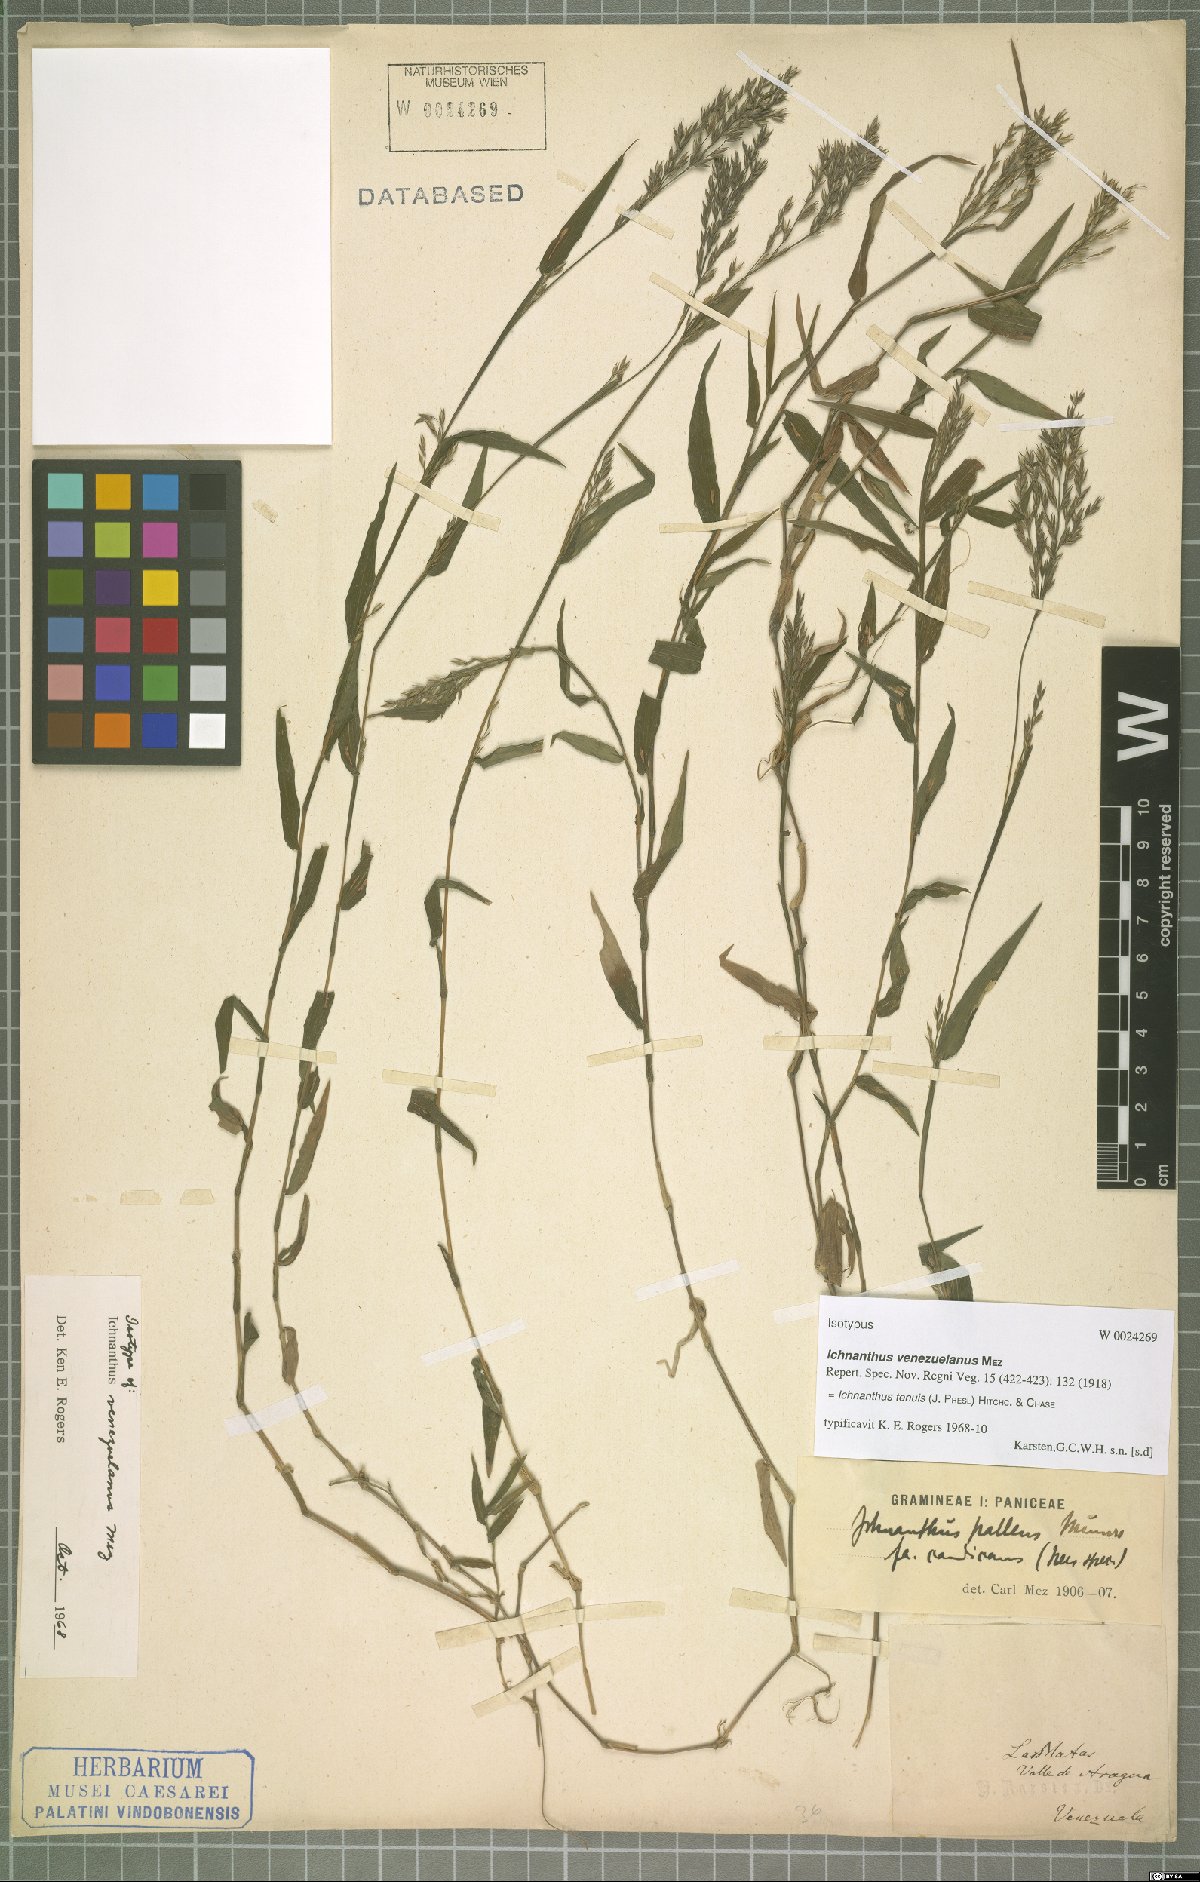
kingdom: Plantae
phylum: Tracheophyta
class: Liliopsida
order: Poales
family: Poaceae
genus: Ichnanthus
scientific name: Ichnanthus tenuis
